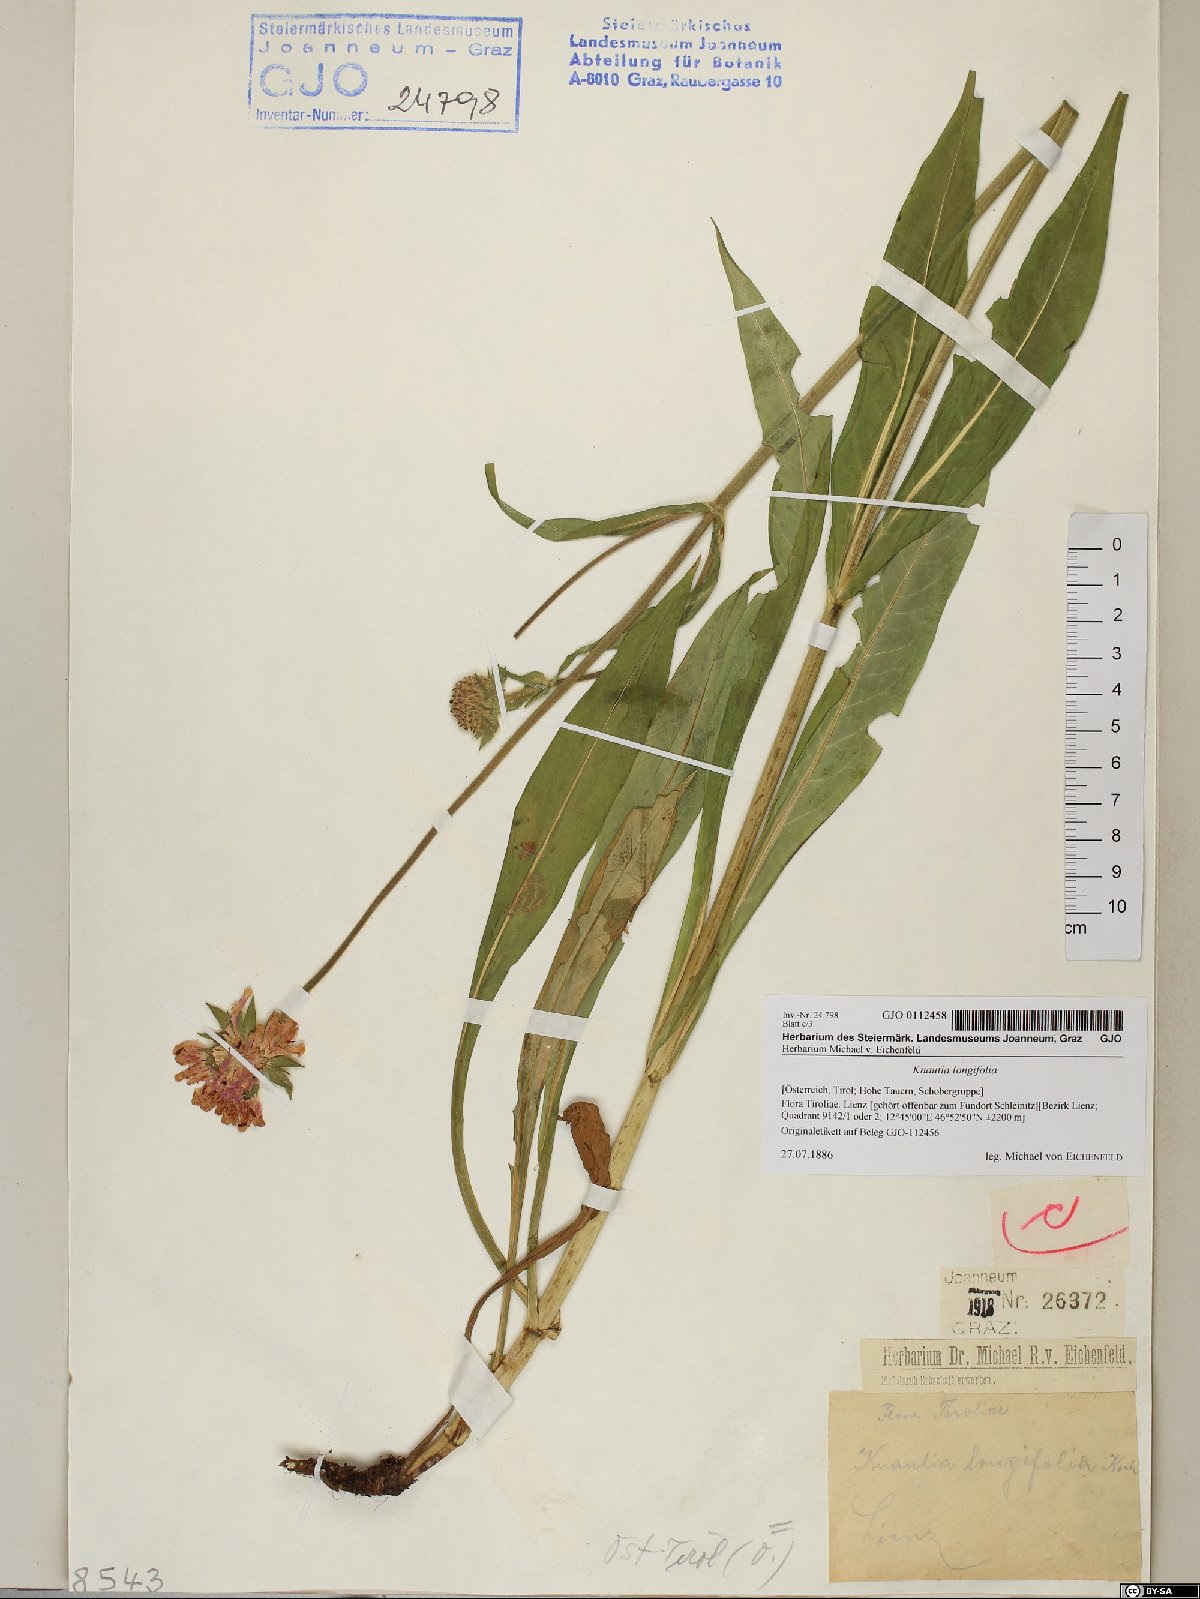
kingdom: Plantae
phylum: Tracheophyta
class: Magnoliopsida
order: Dipsacales
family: Caprifoliaceae
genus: Knautia
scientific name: Knautia longifolia
